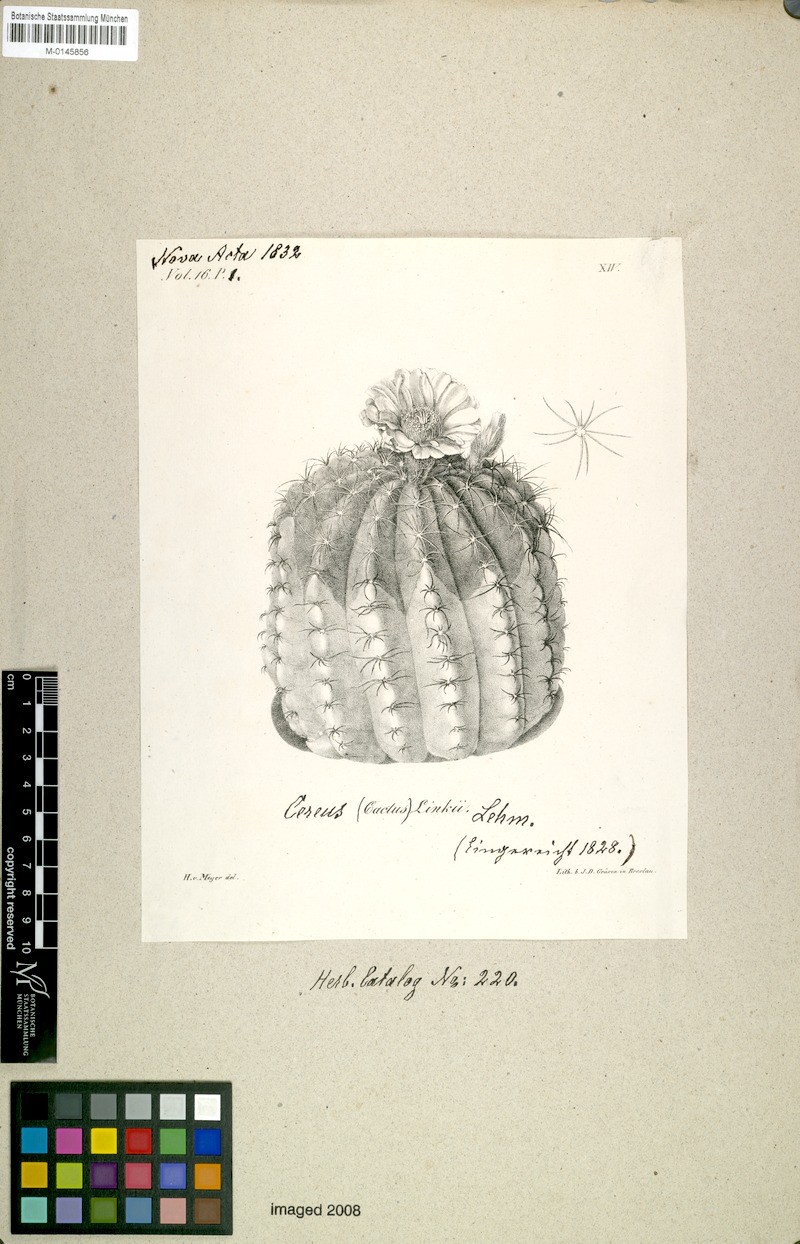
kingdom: Plantae
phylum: Tracheophyta
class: Magnoliopsida
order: Caryophyllales
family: Cactaceae
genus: Parodia
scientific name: Parodia ottonis
